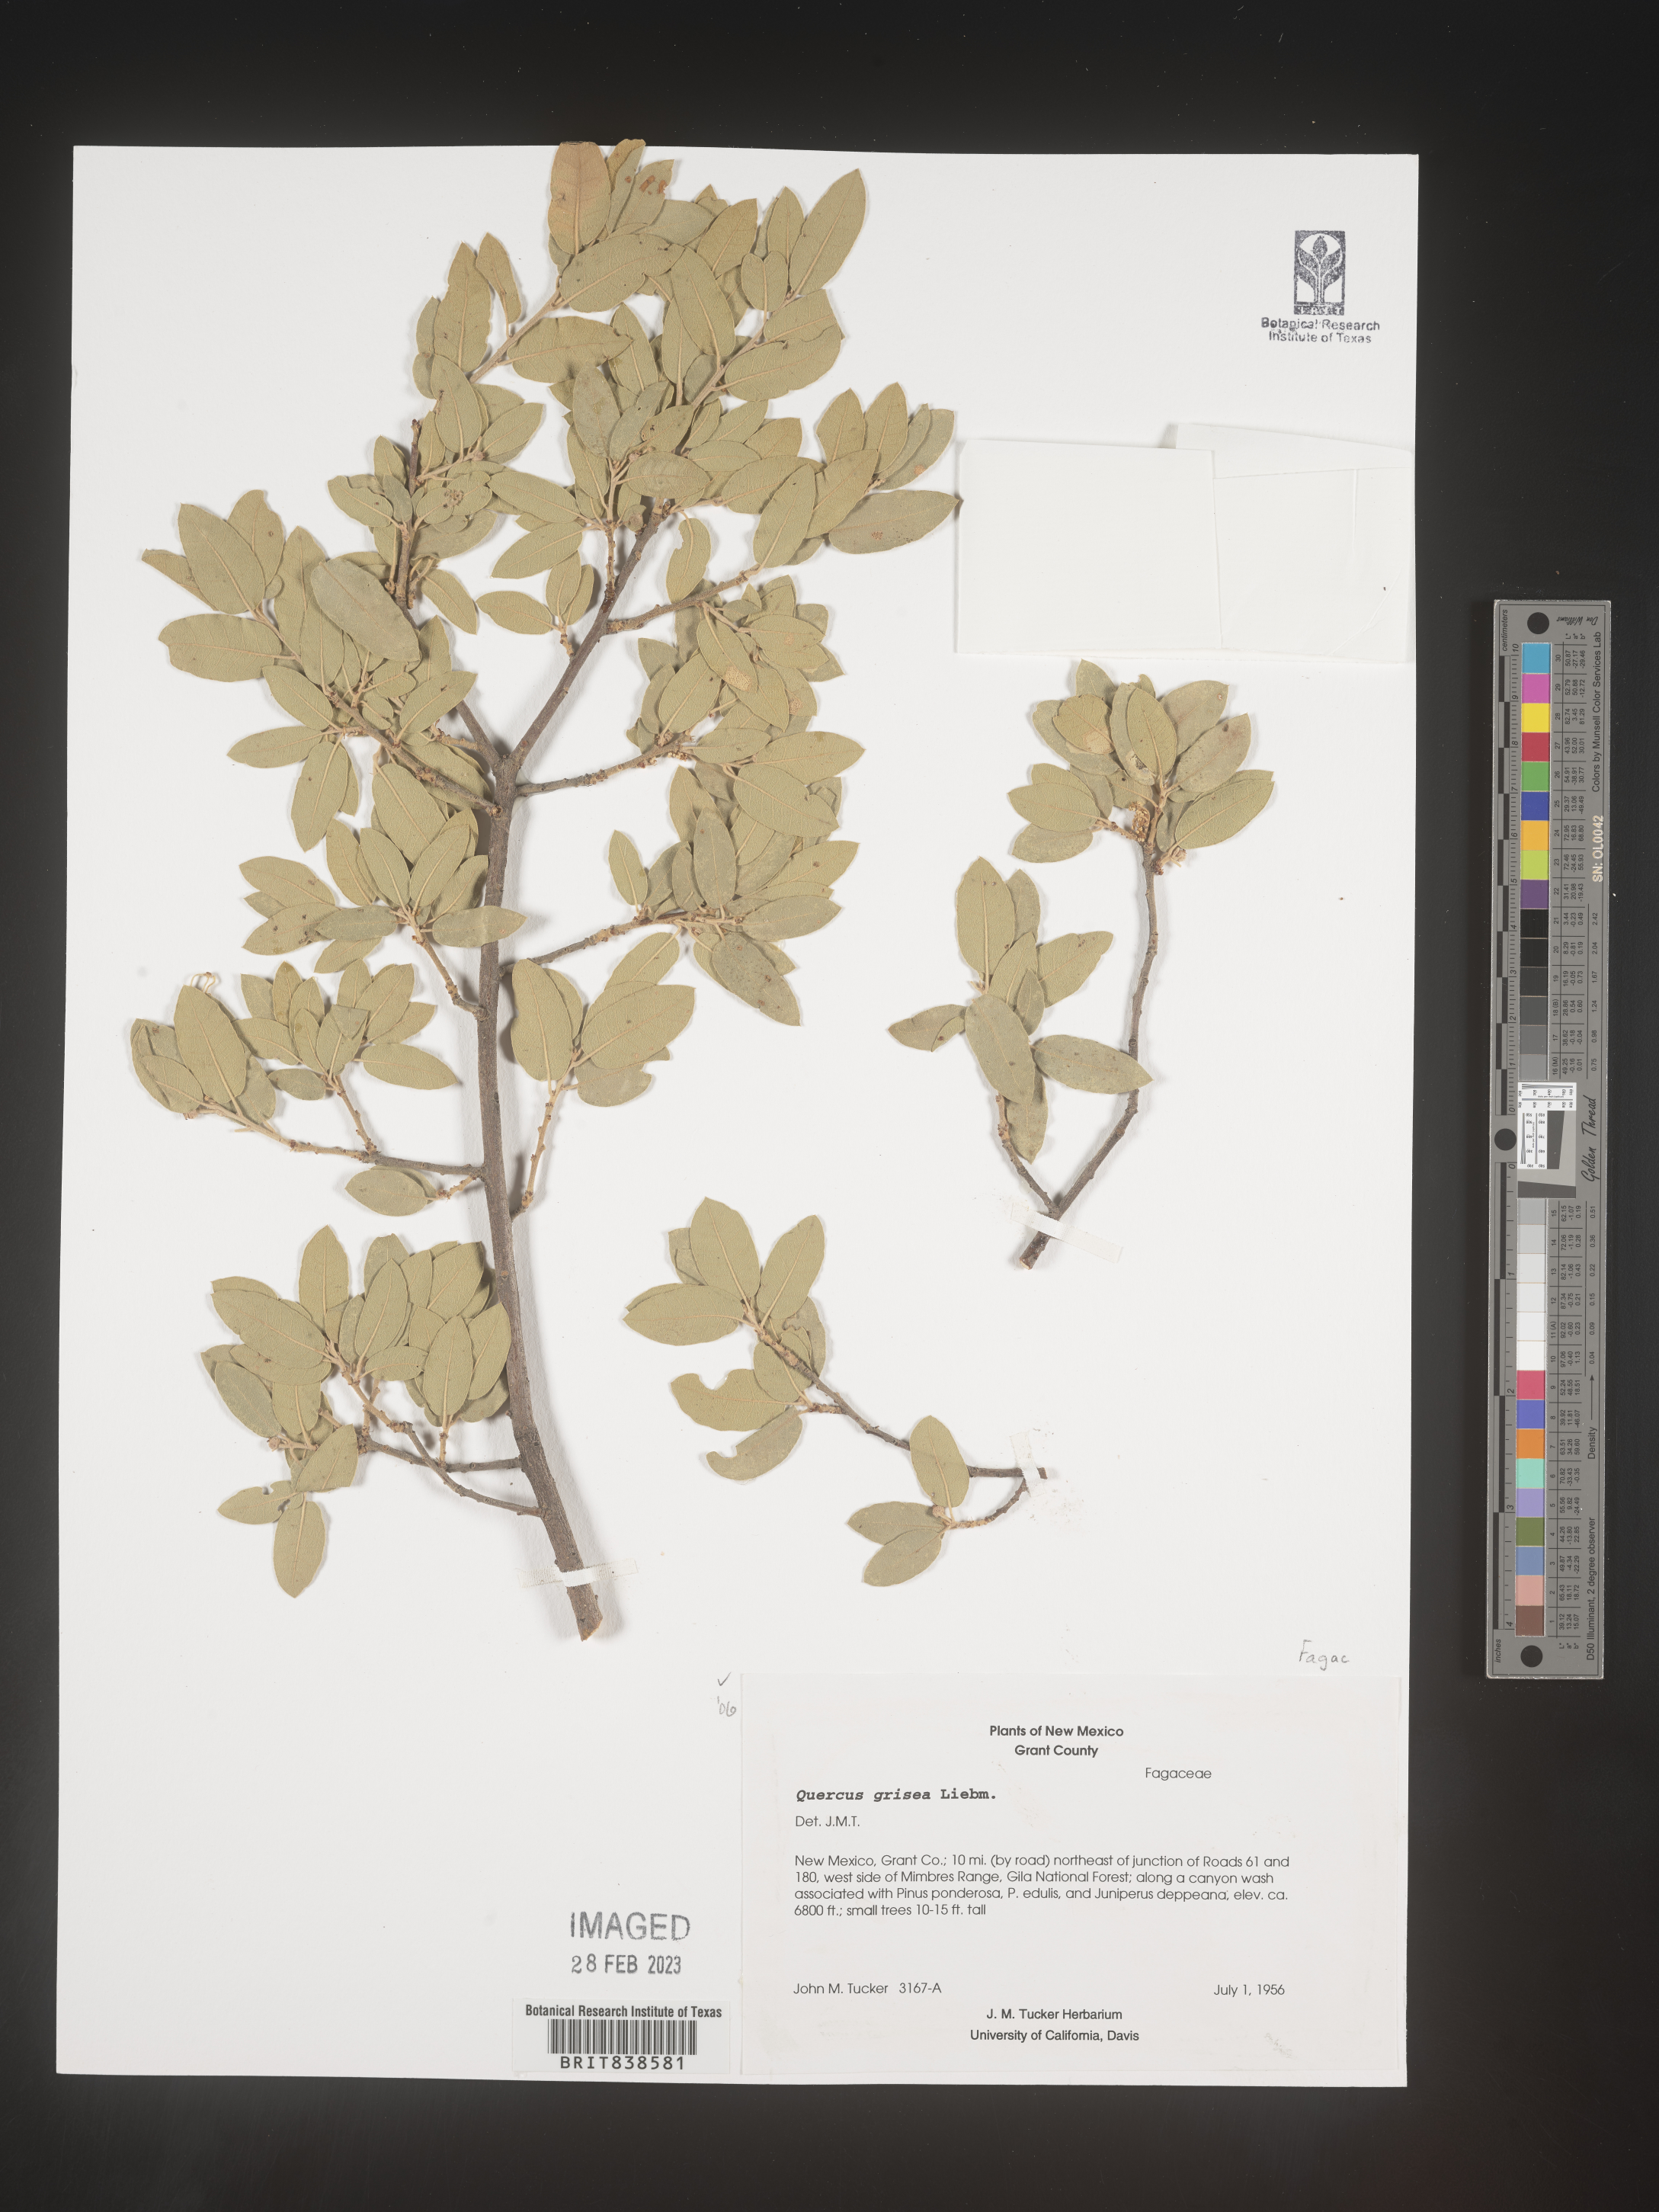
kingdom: Plantae
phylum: Tracheophyta
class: Magnoliopsida
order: Fagales
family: Fagaceae
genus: Quercus
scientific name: Quercus grisea
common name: Gray oak
